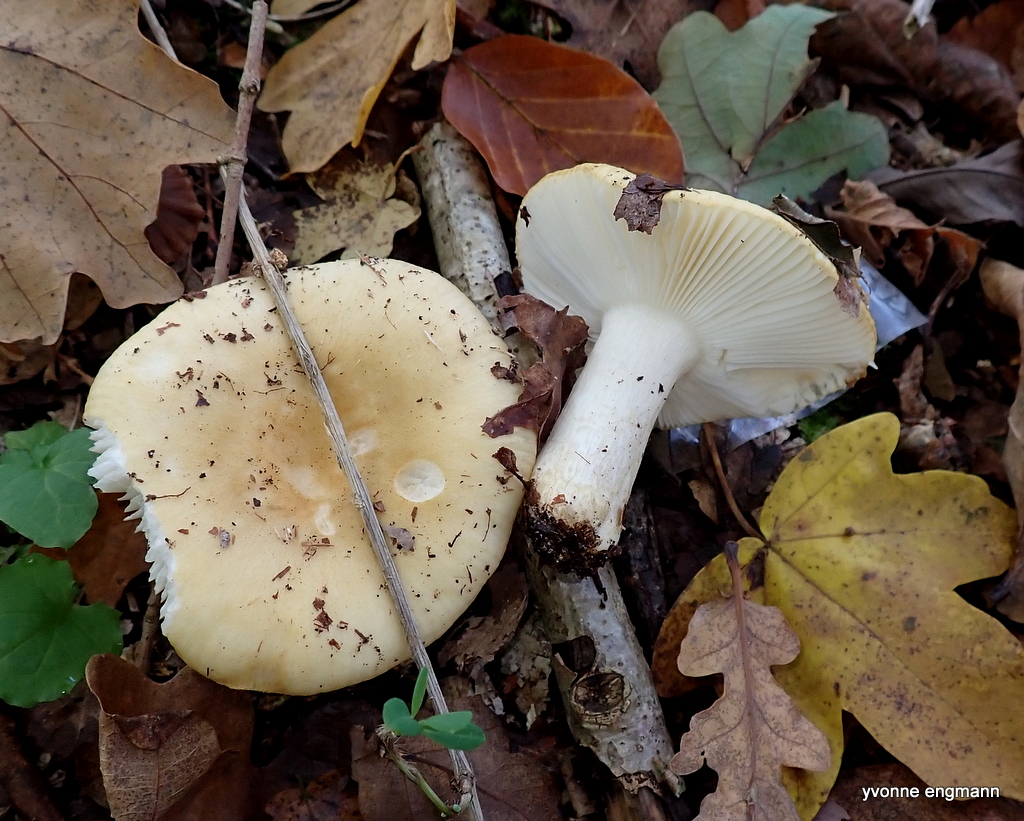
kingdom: Fungi
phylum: Basidiomycota
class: Agaricomycetes
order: Russulales
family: Russulaceae
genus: Russula
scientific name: Russula ochroleuca
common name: okkergul skørhat
